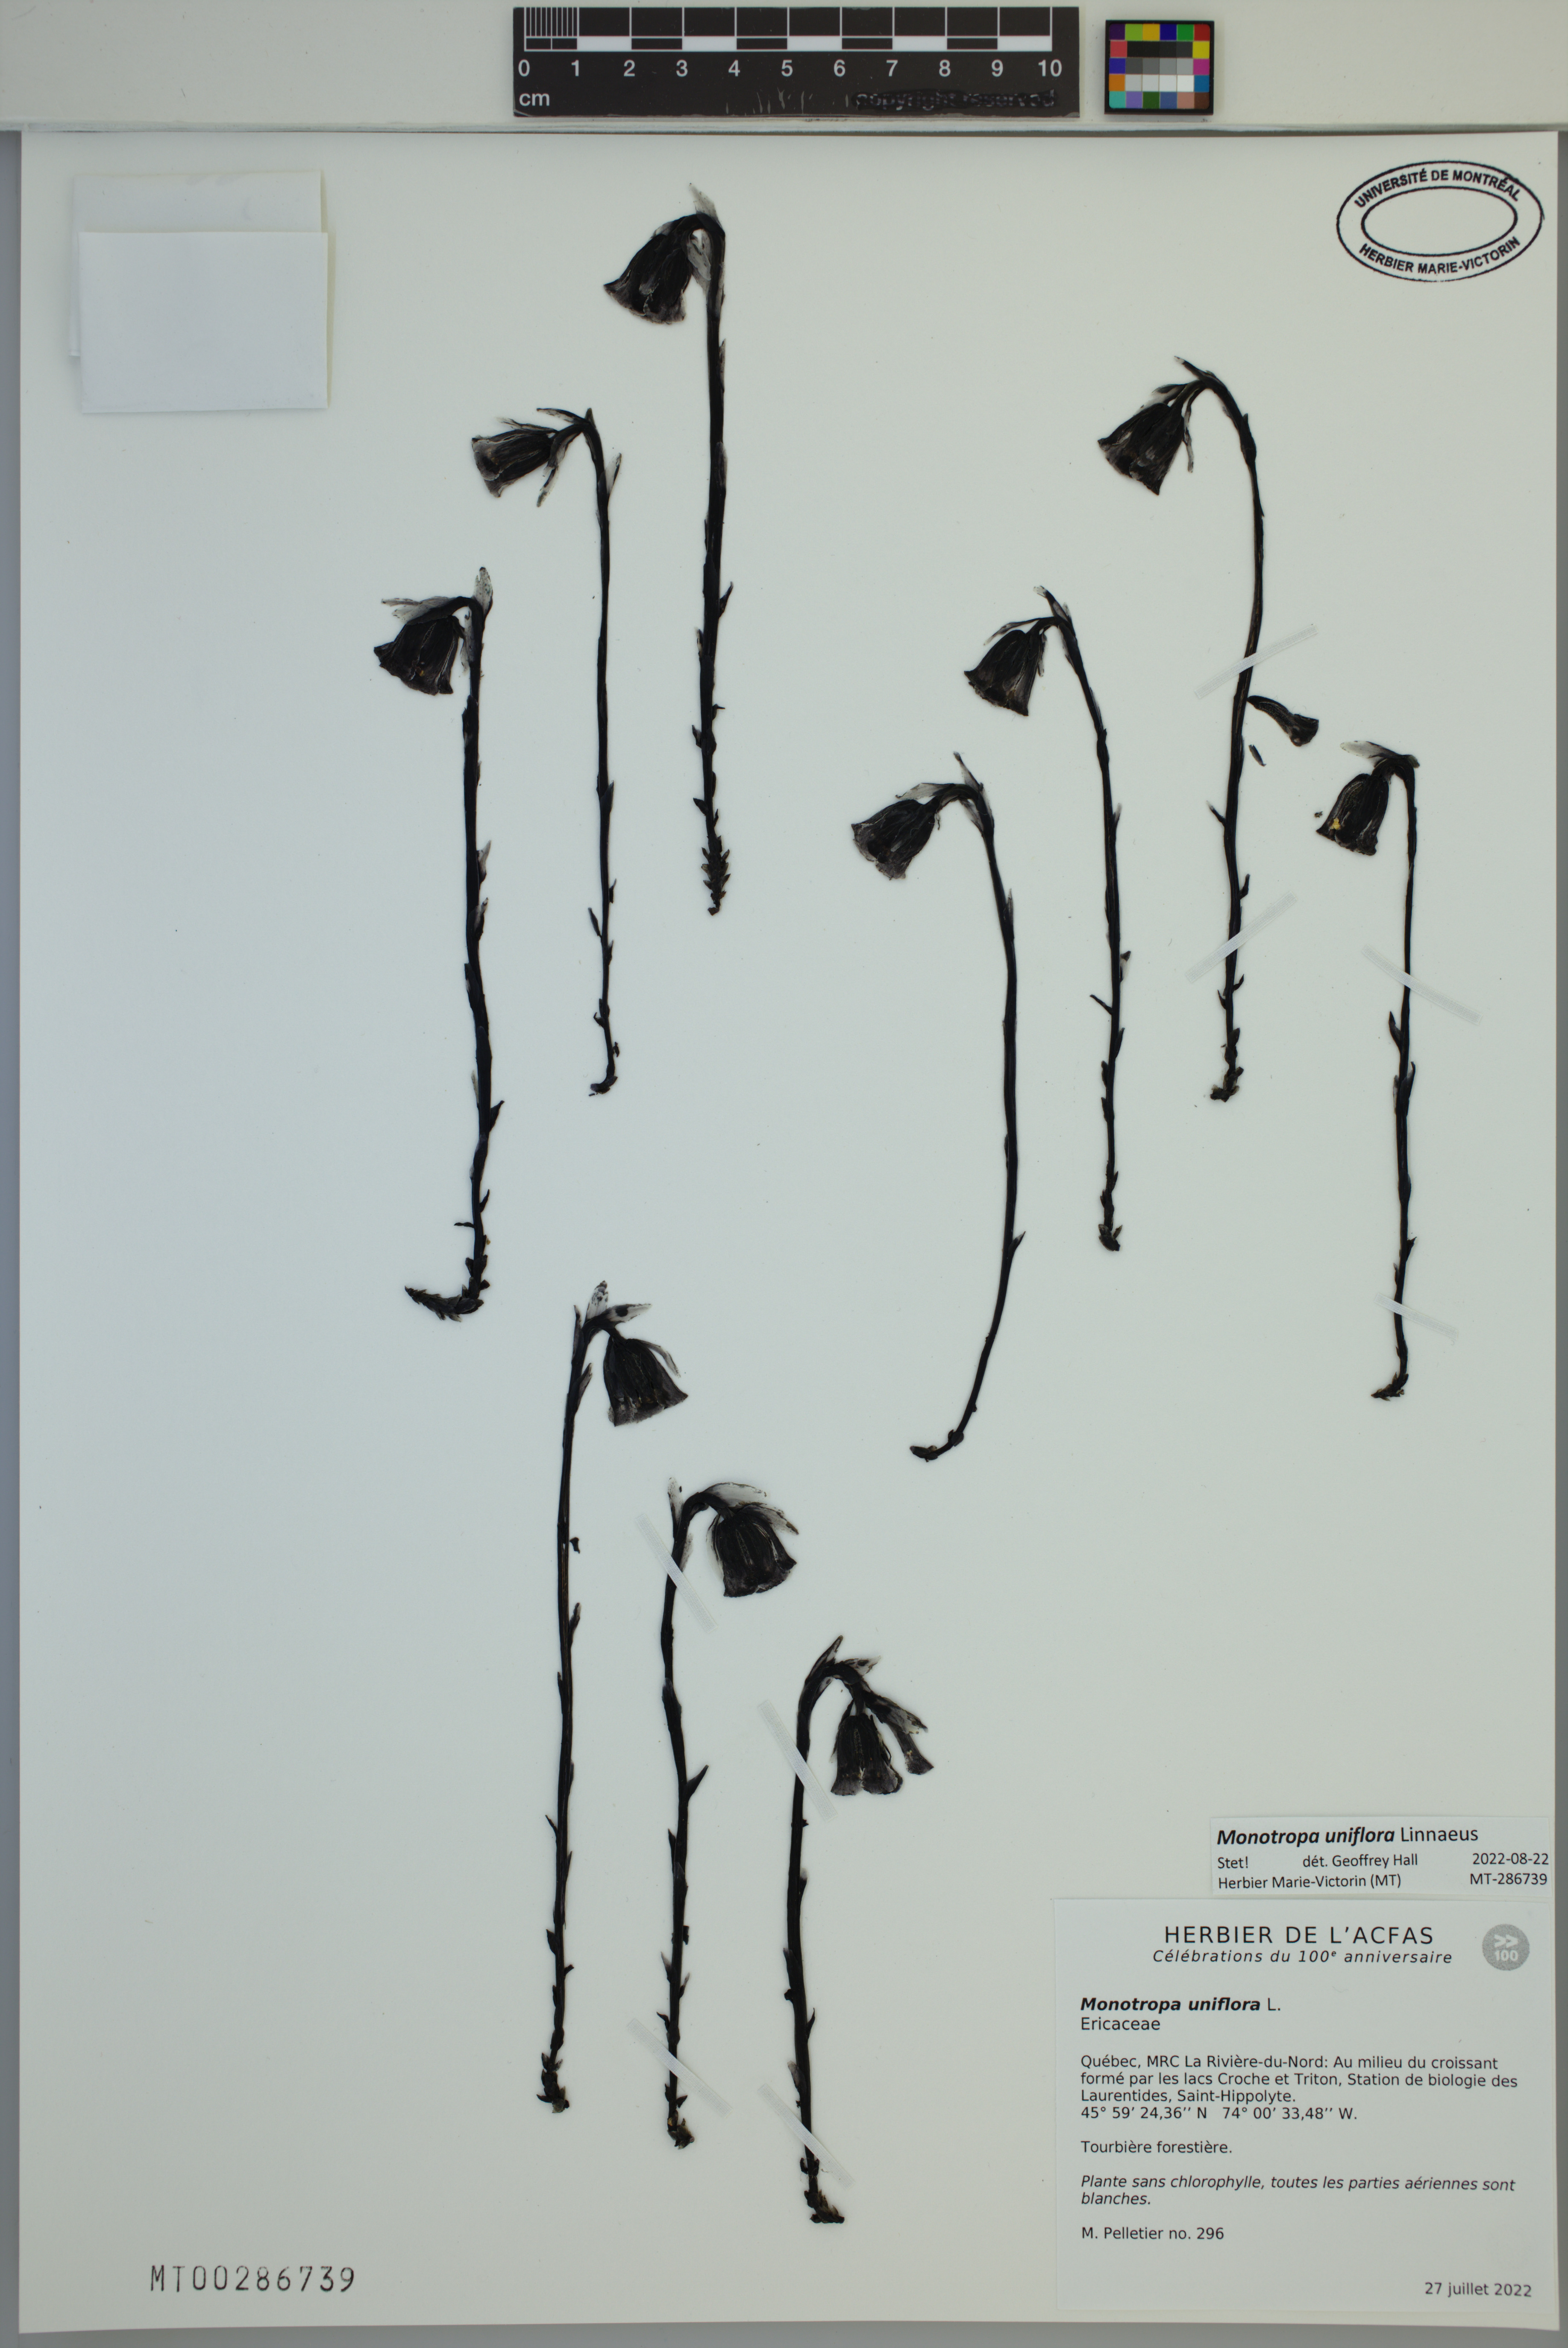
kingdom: Plantae
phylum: Tracheophyta
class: Magnoliopsida
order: Ericales
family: Ericaceae
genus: Monotropa
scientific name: Monotropa uniflora
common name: Convulsion root
